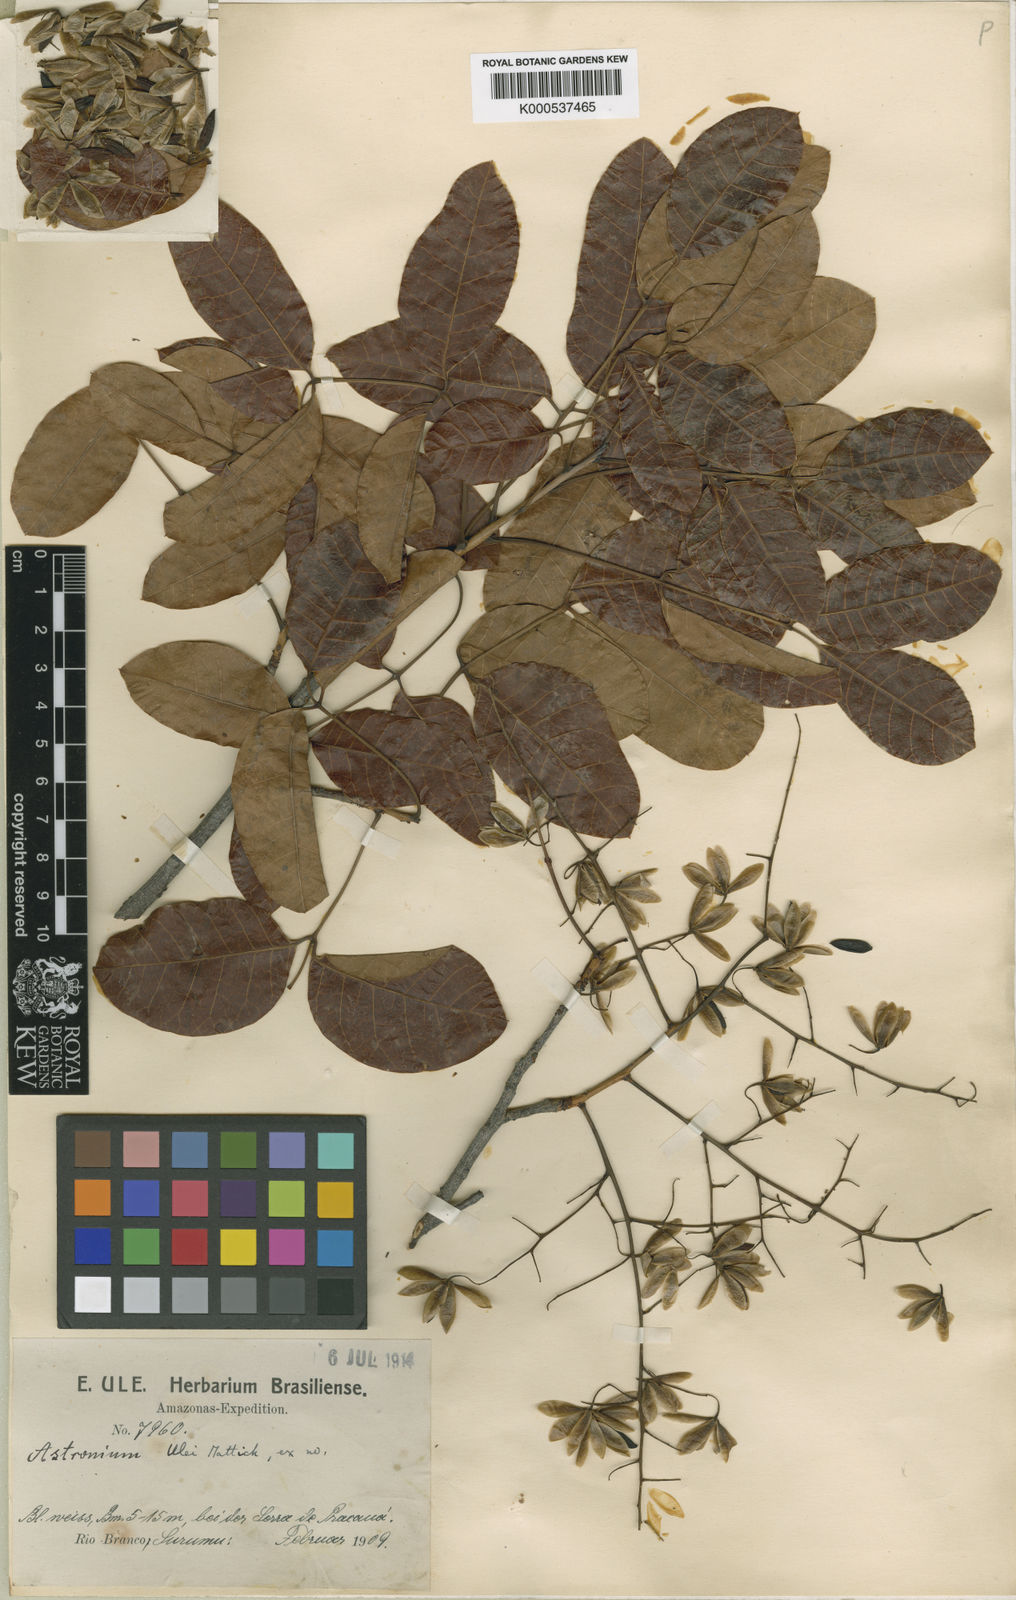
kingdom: Plantae
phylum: Tracheophyta
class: Magnoliopsida
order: Sapindales
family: Anacardiaceae
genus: Astronium
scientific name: Astronium ulei
